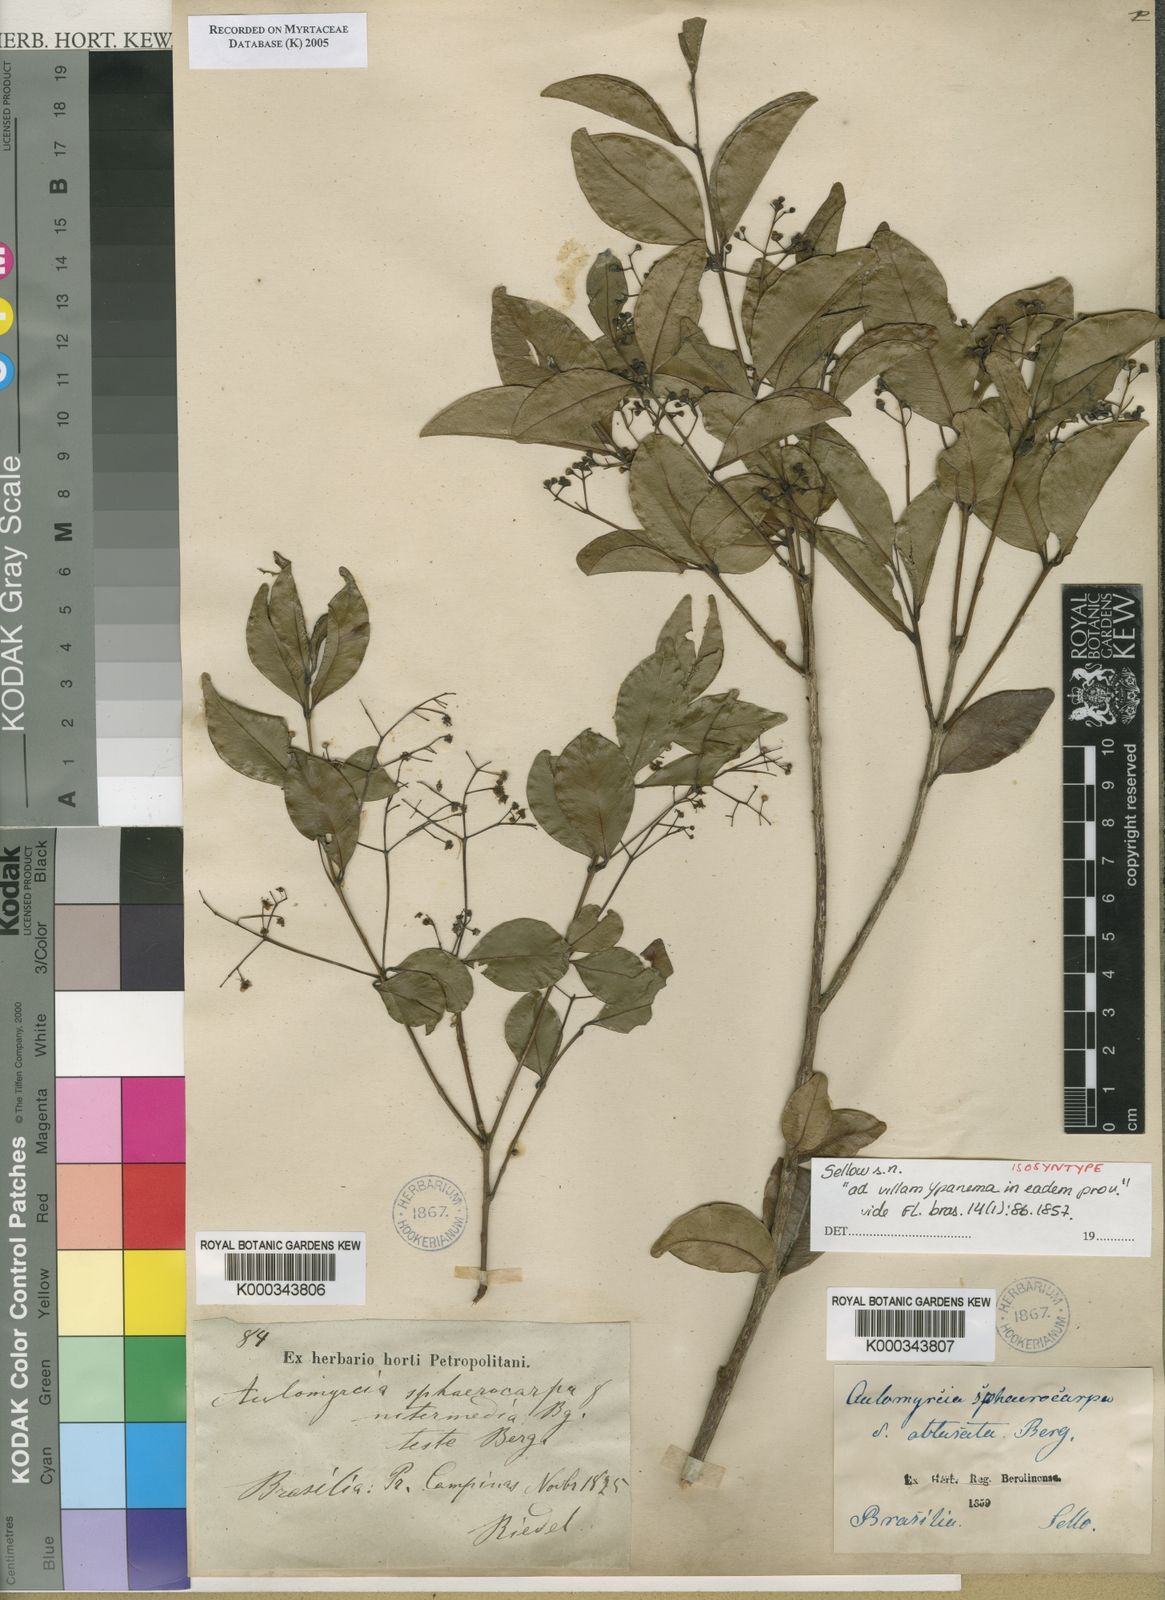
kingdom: Plantae
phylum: Tracheophyta
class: Magnoliopsida
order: Myrtales
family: Myrtaceae
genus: Myrcia
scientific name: Myrcia multiflora
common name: Pedra hume
